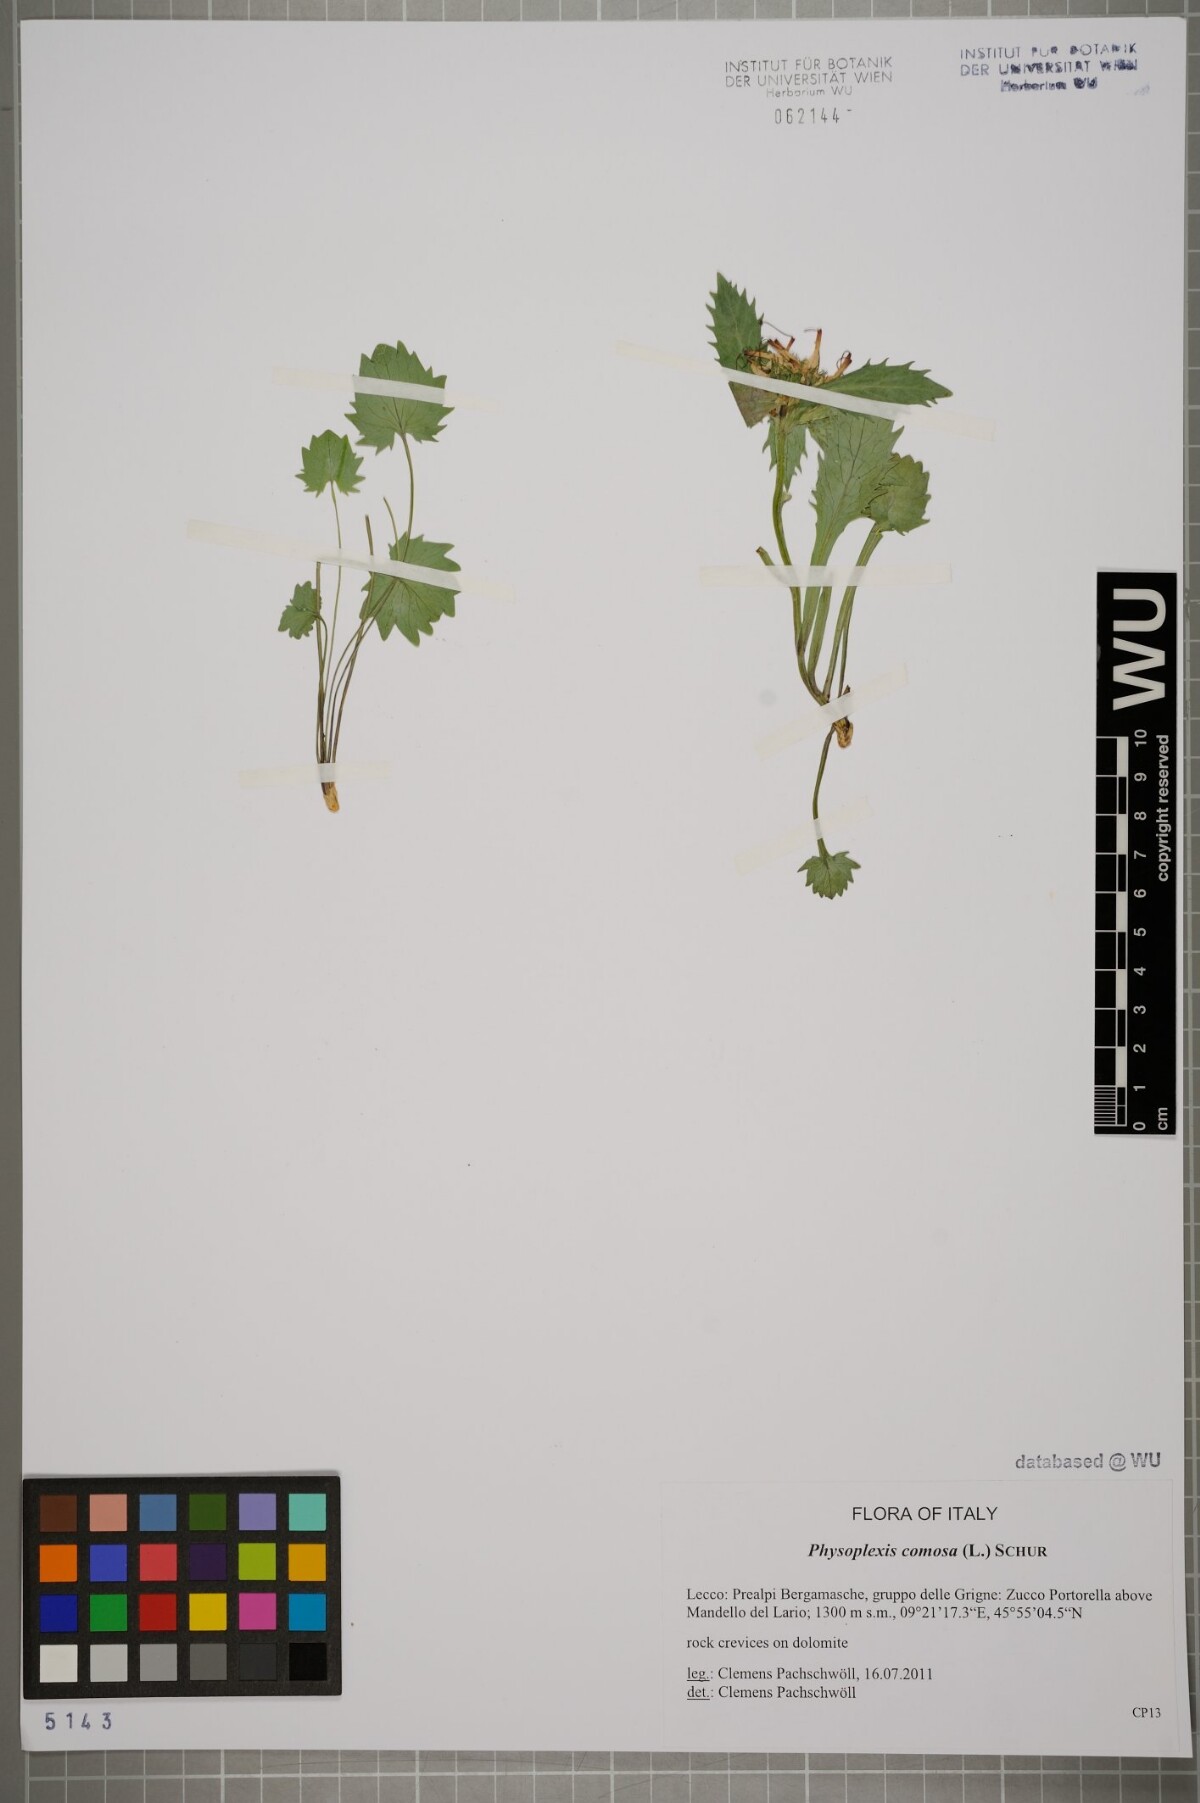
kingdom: Plantae
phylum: Tracheophyta
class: Magnoliopsida
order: Asterales
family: Campanulaceae
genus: Physoplexis
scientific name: Physoplexis comosa
